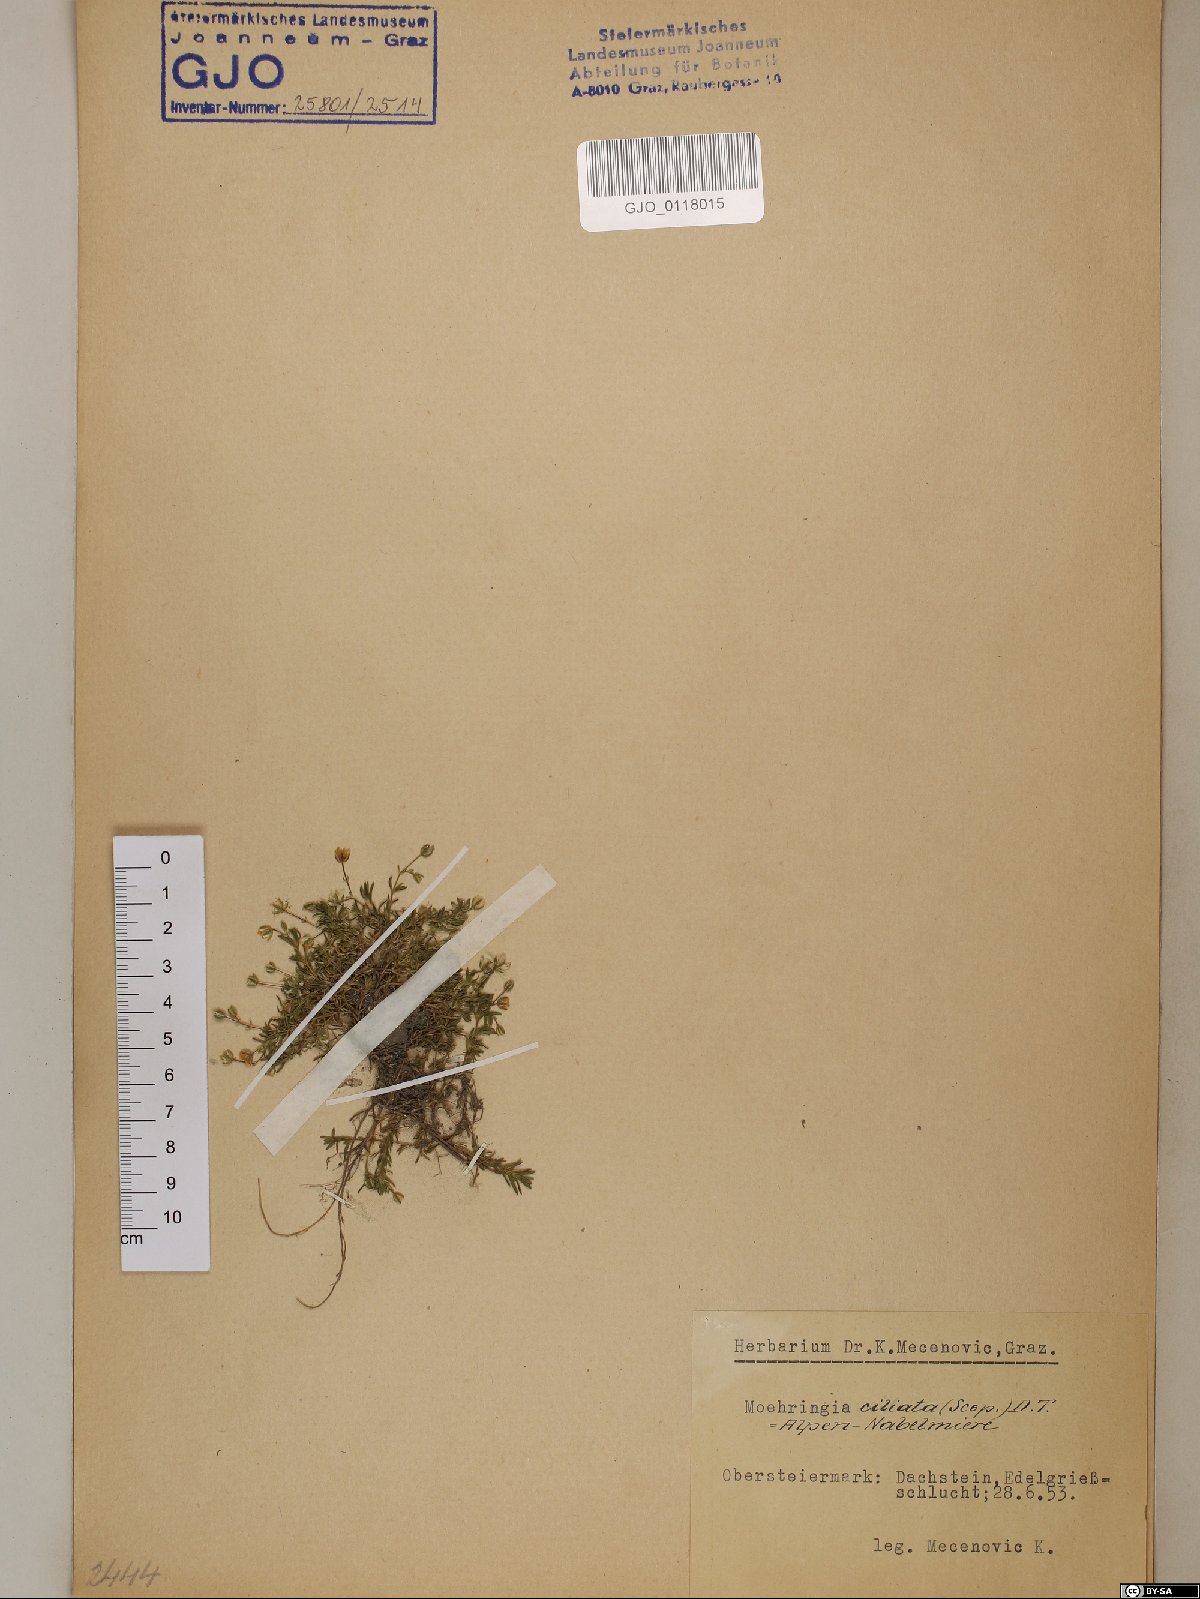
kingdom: Plantae
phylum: Tracheophyta
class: Magnoliopsida
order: Caryophyllales
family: Caryophyllaceae
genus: Moehringia
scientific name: Moehringia ciliata
